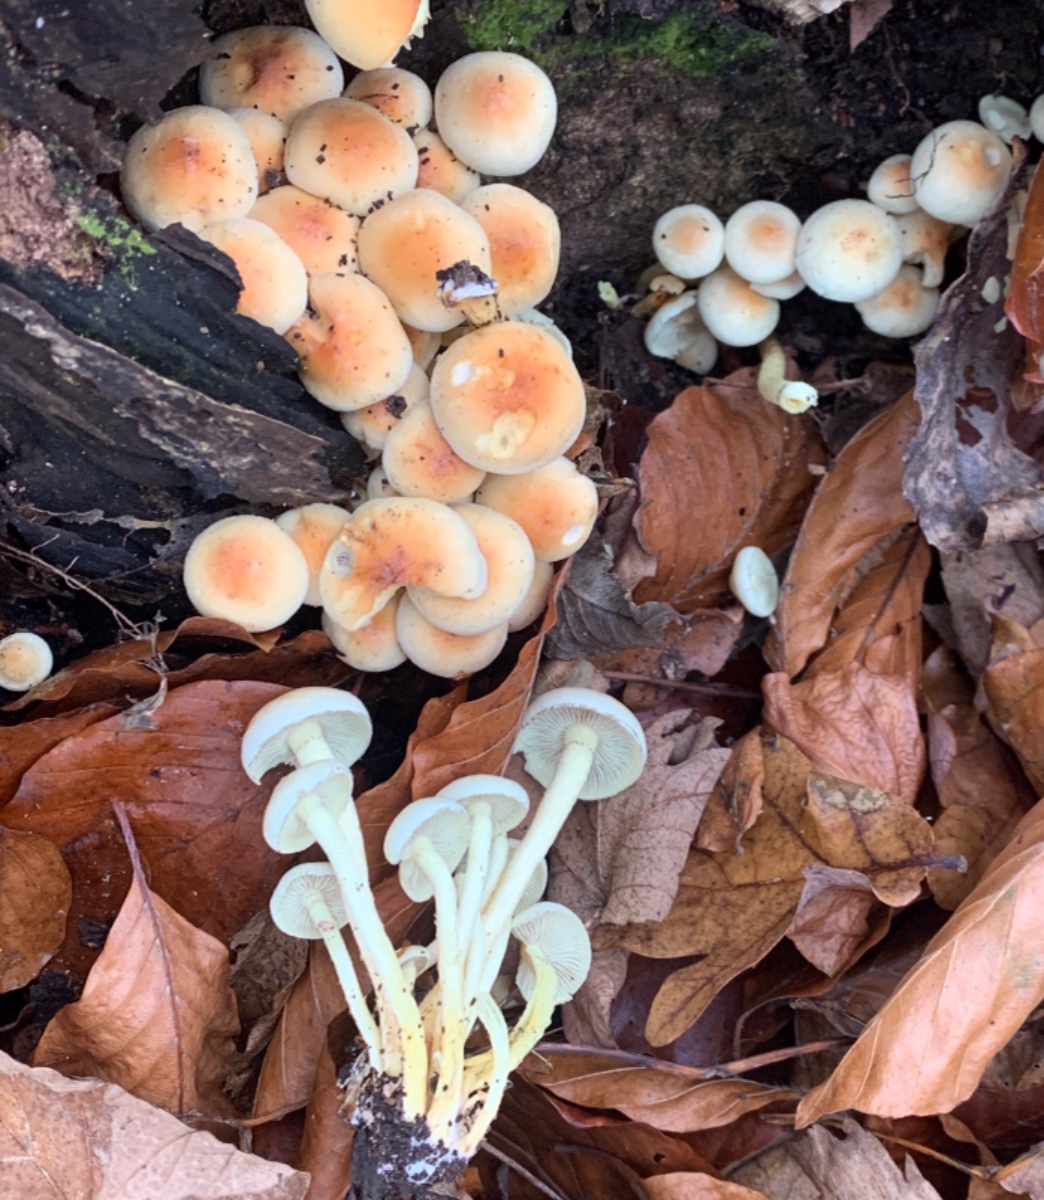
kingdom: Fungi
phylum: Basidiomycota
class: Agaricomycetes
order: Agaricales
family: Strophariaceae
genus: Hypholoma
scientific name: Hypholoma fasciculare
